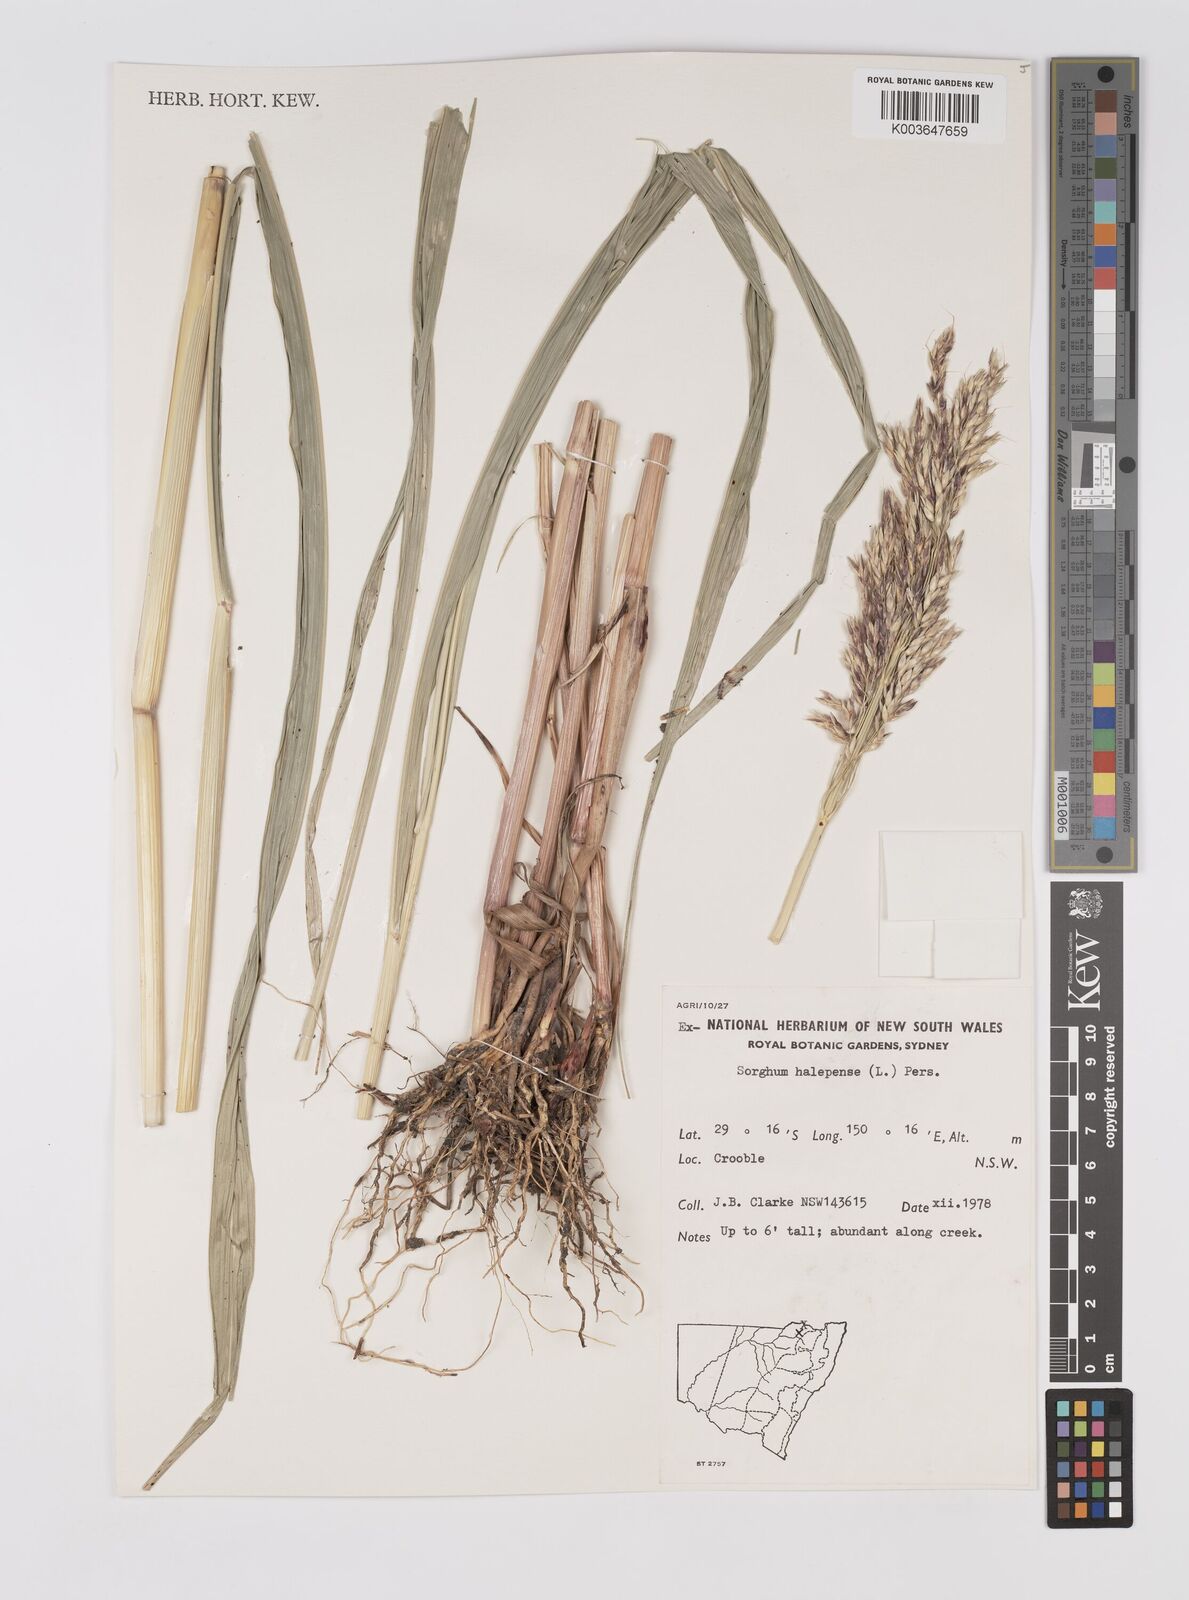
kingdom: Plantae
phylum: Tracheophyta
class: Liliopsida
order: Poales
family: Poaceae
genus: Sorghum
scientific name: Sorghum halepense
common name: Johnson-grass
